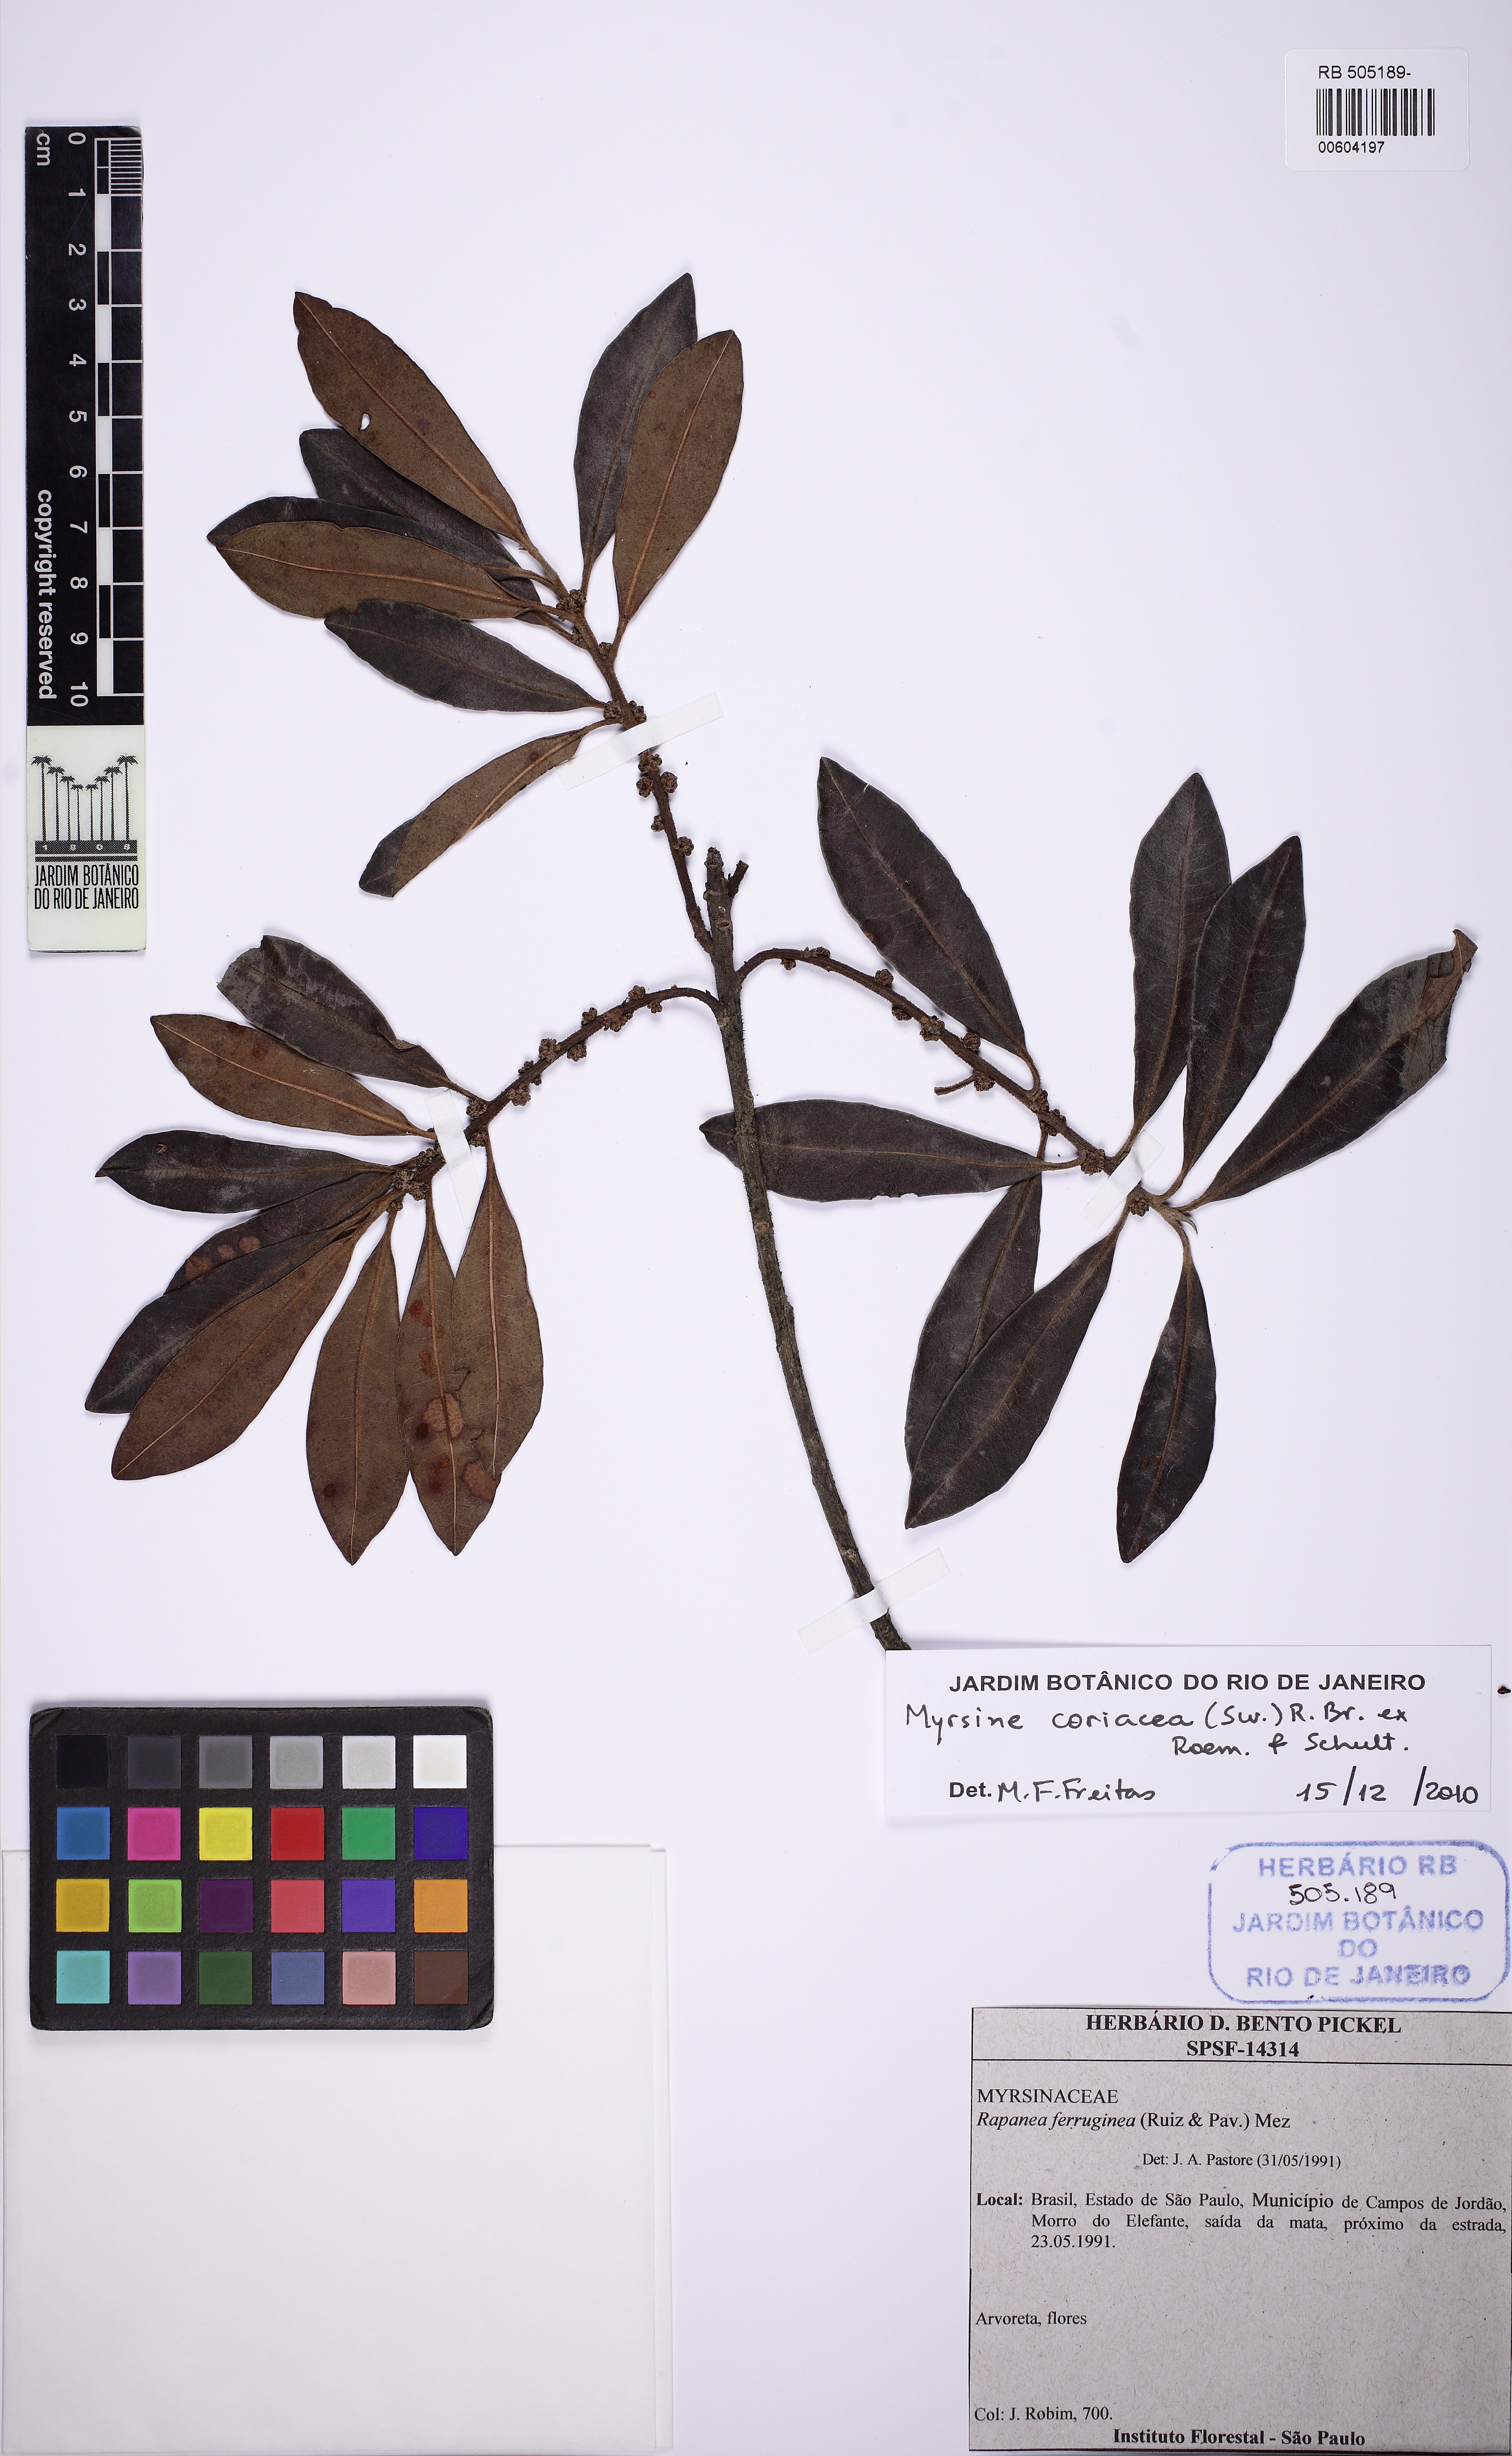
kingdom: Plantae
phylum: Tracheophyta
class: Magnoliopsida
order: Ericales
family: Primulaceae
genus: Myrsine
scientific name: Myrsine coriacea
